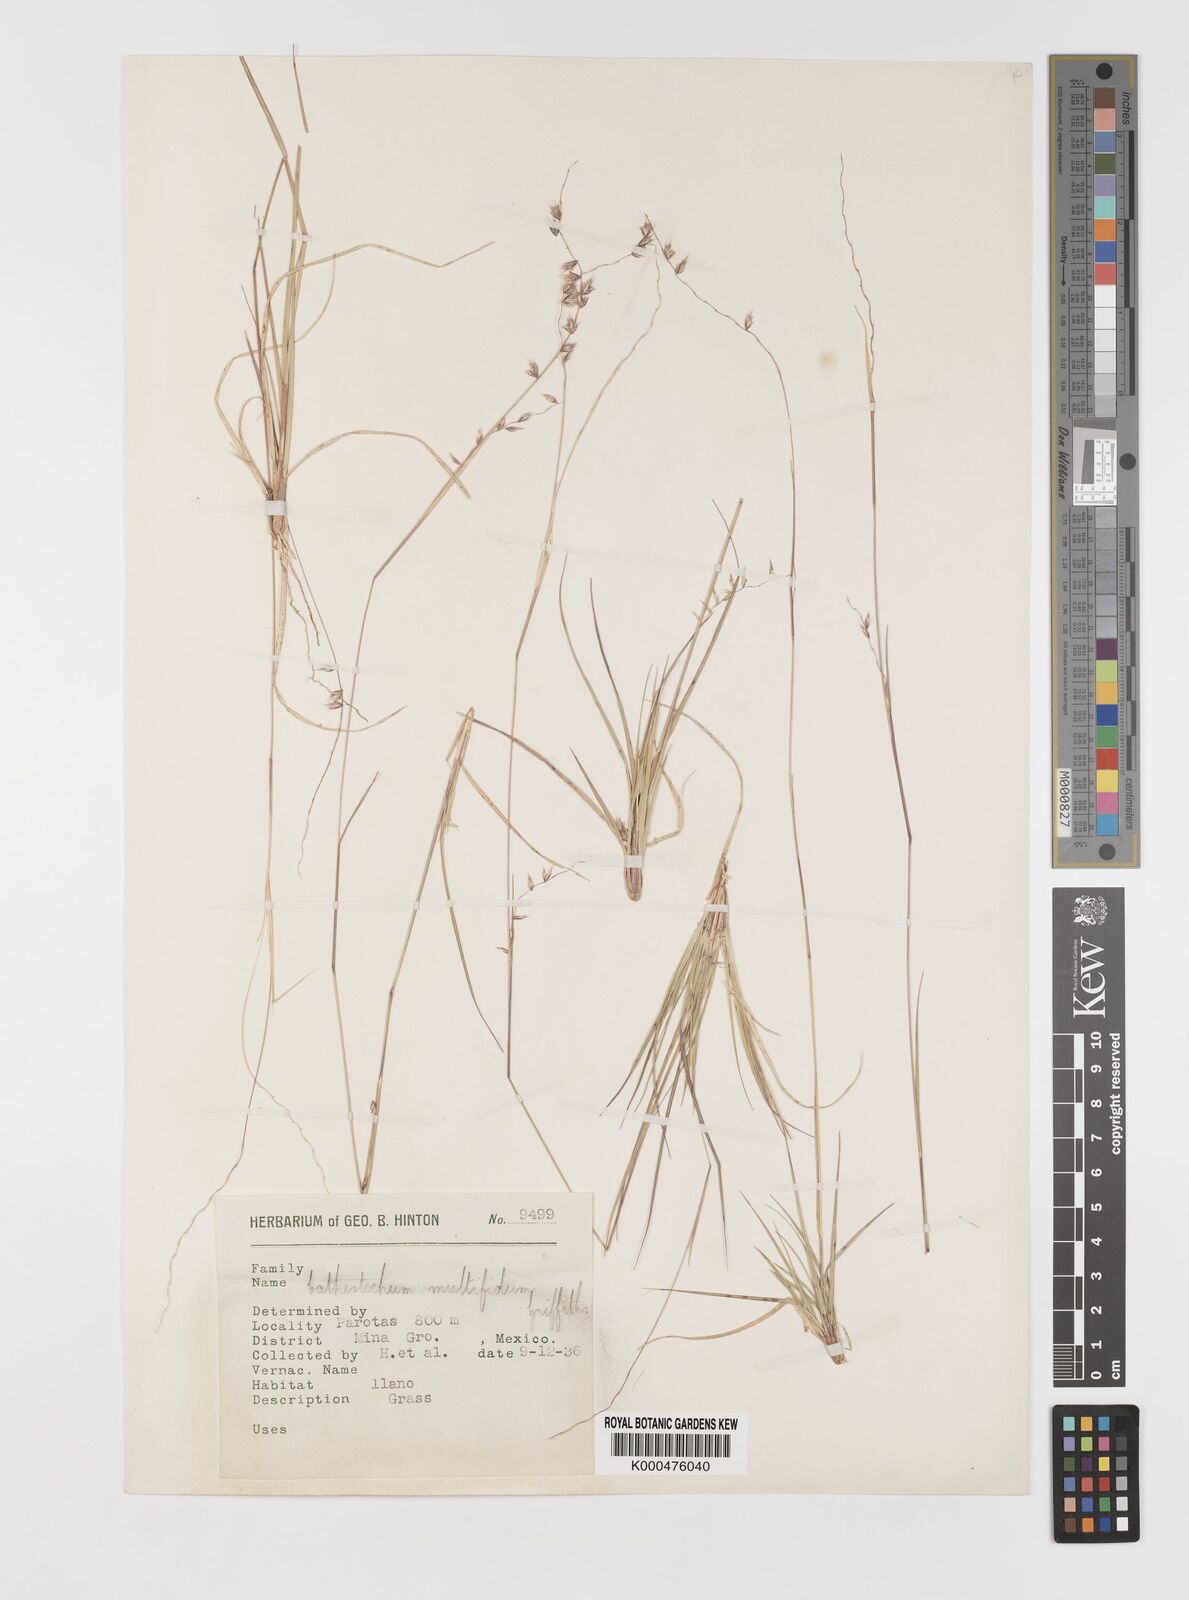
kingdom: Plantae
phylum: Tracheophyta
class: Liliopsida
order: Poales
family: Poaceae
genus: Bouteloua
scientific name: Bouteloua multifida
